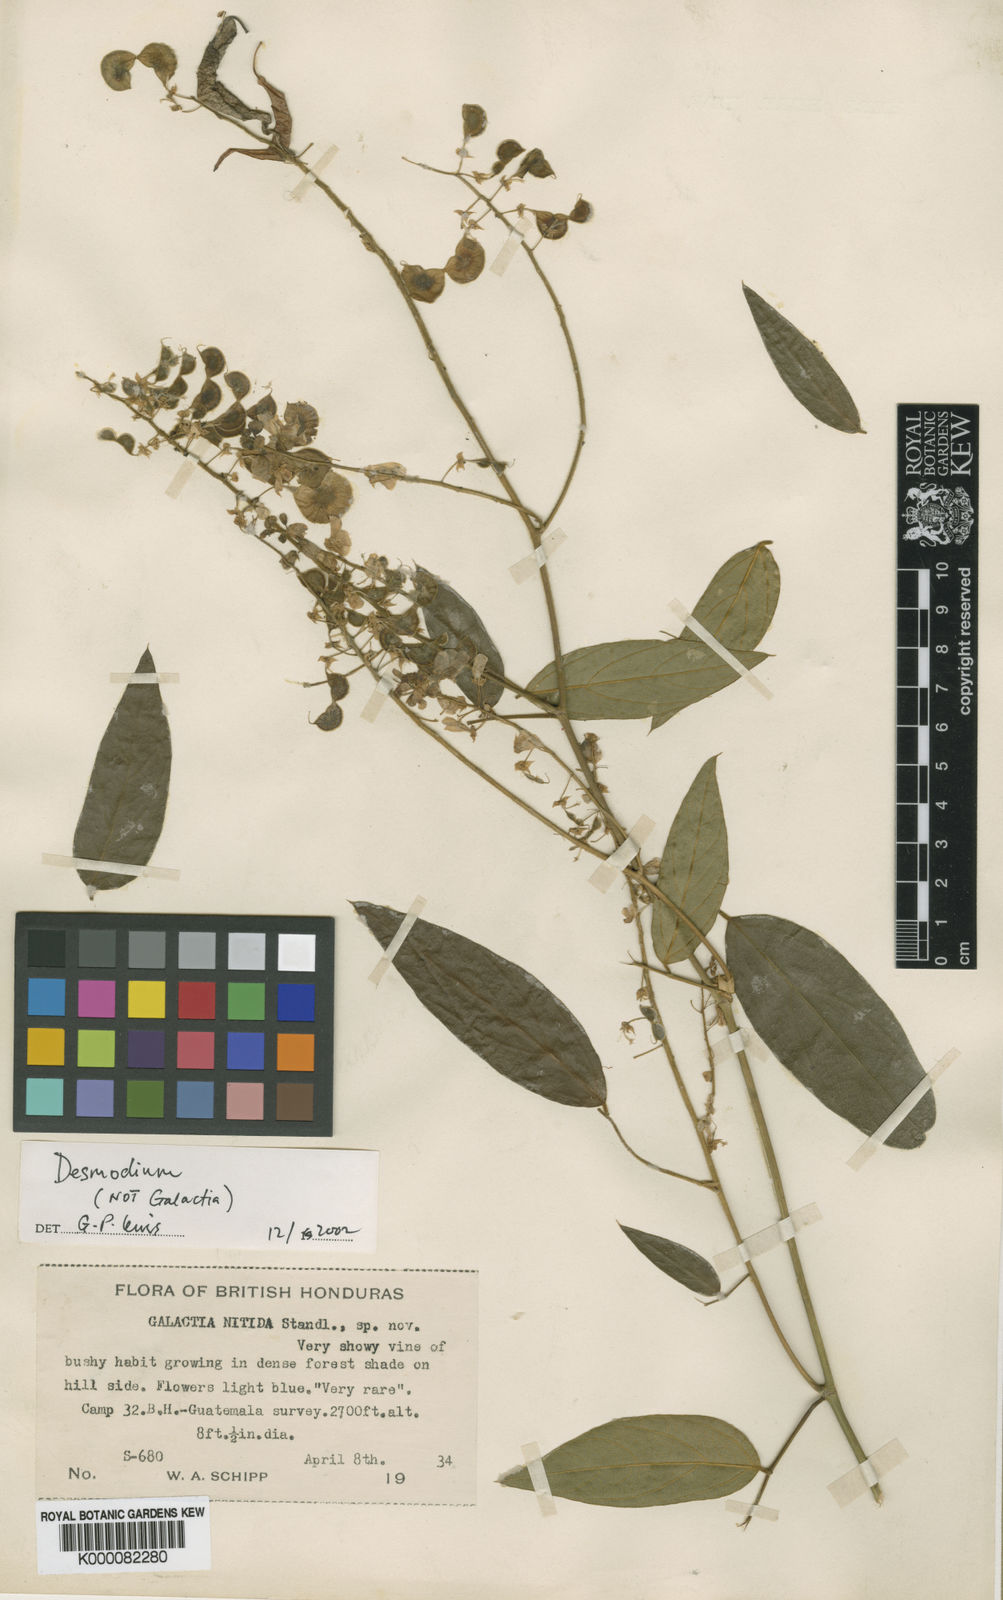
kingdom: Plantae
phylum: Tracheophyta
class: Magnoliopsida
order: Fabales
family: Fabaceae
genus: Desmodium
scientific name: Desmodium metallicum
